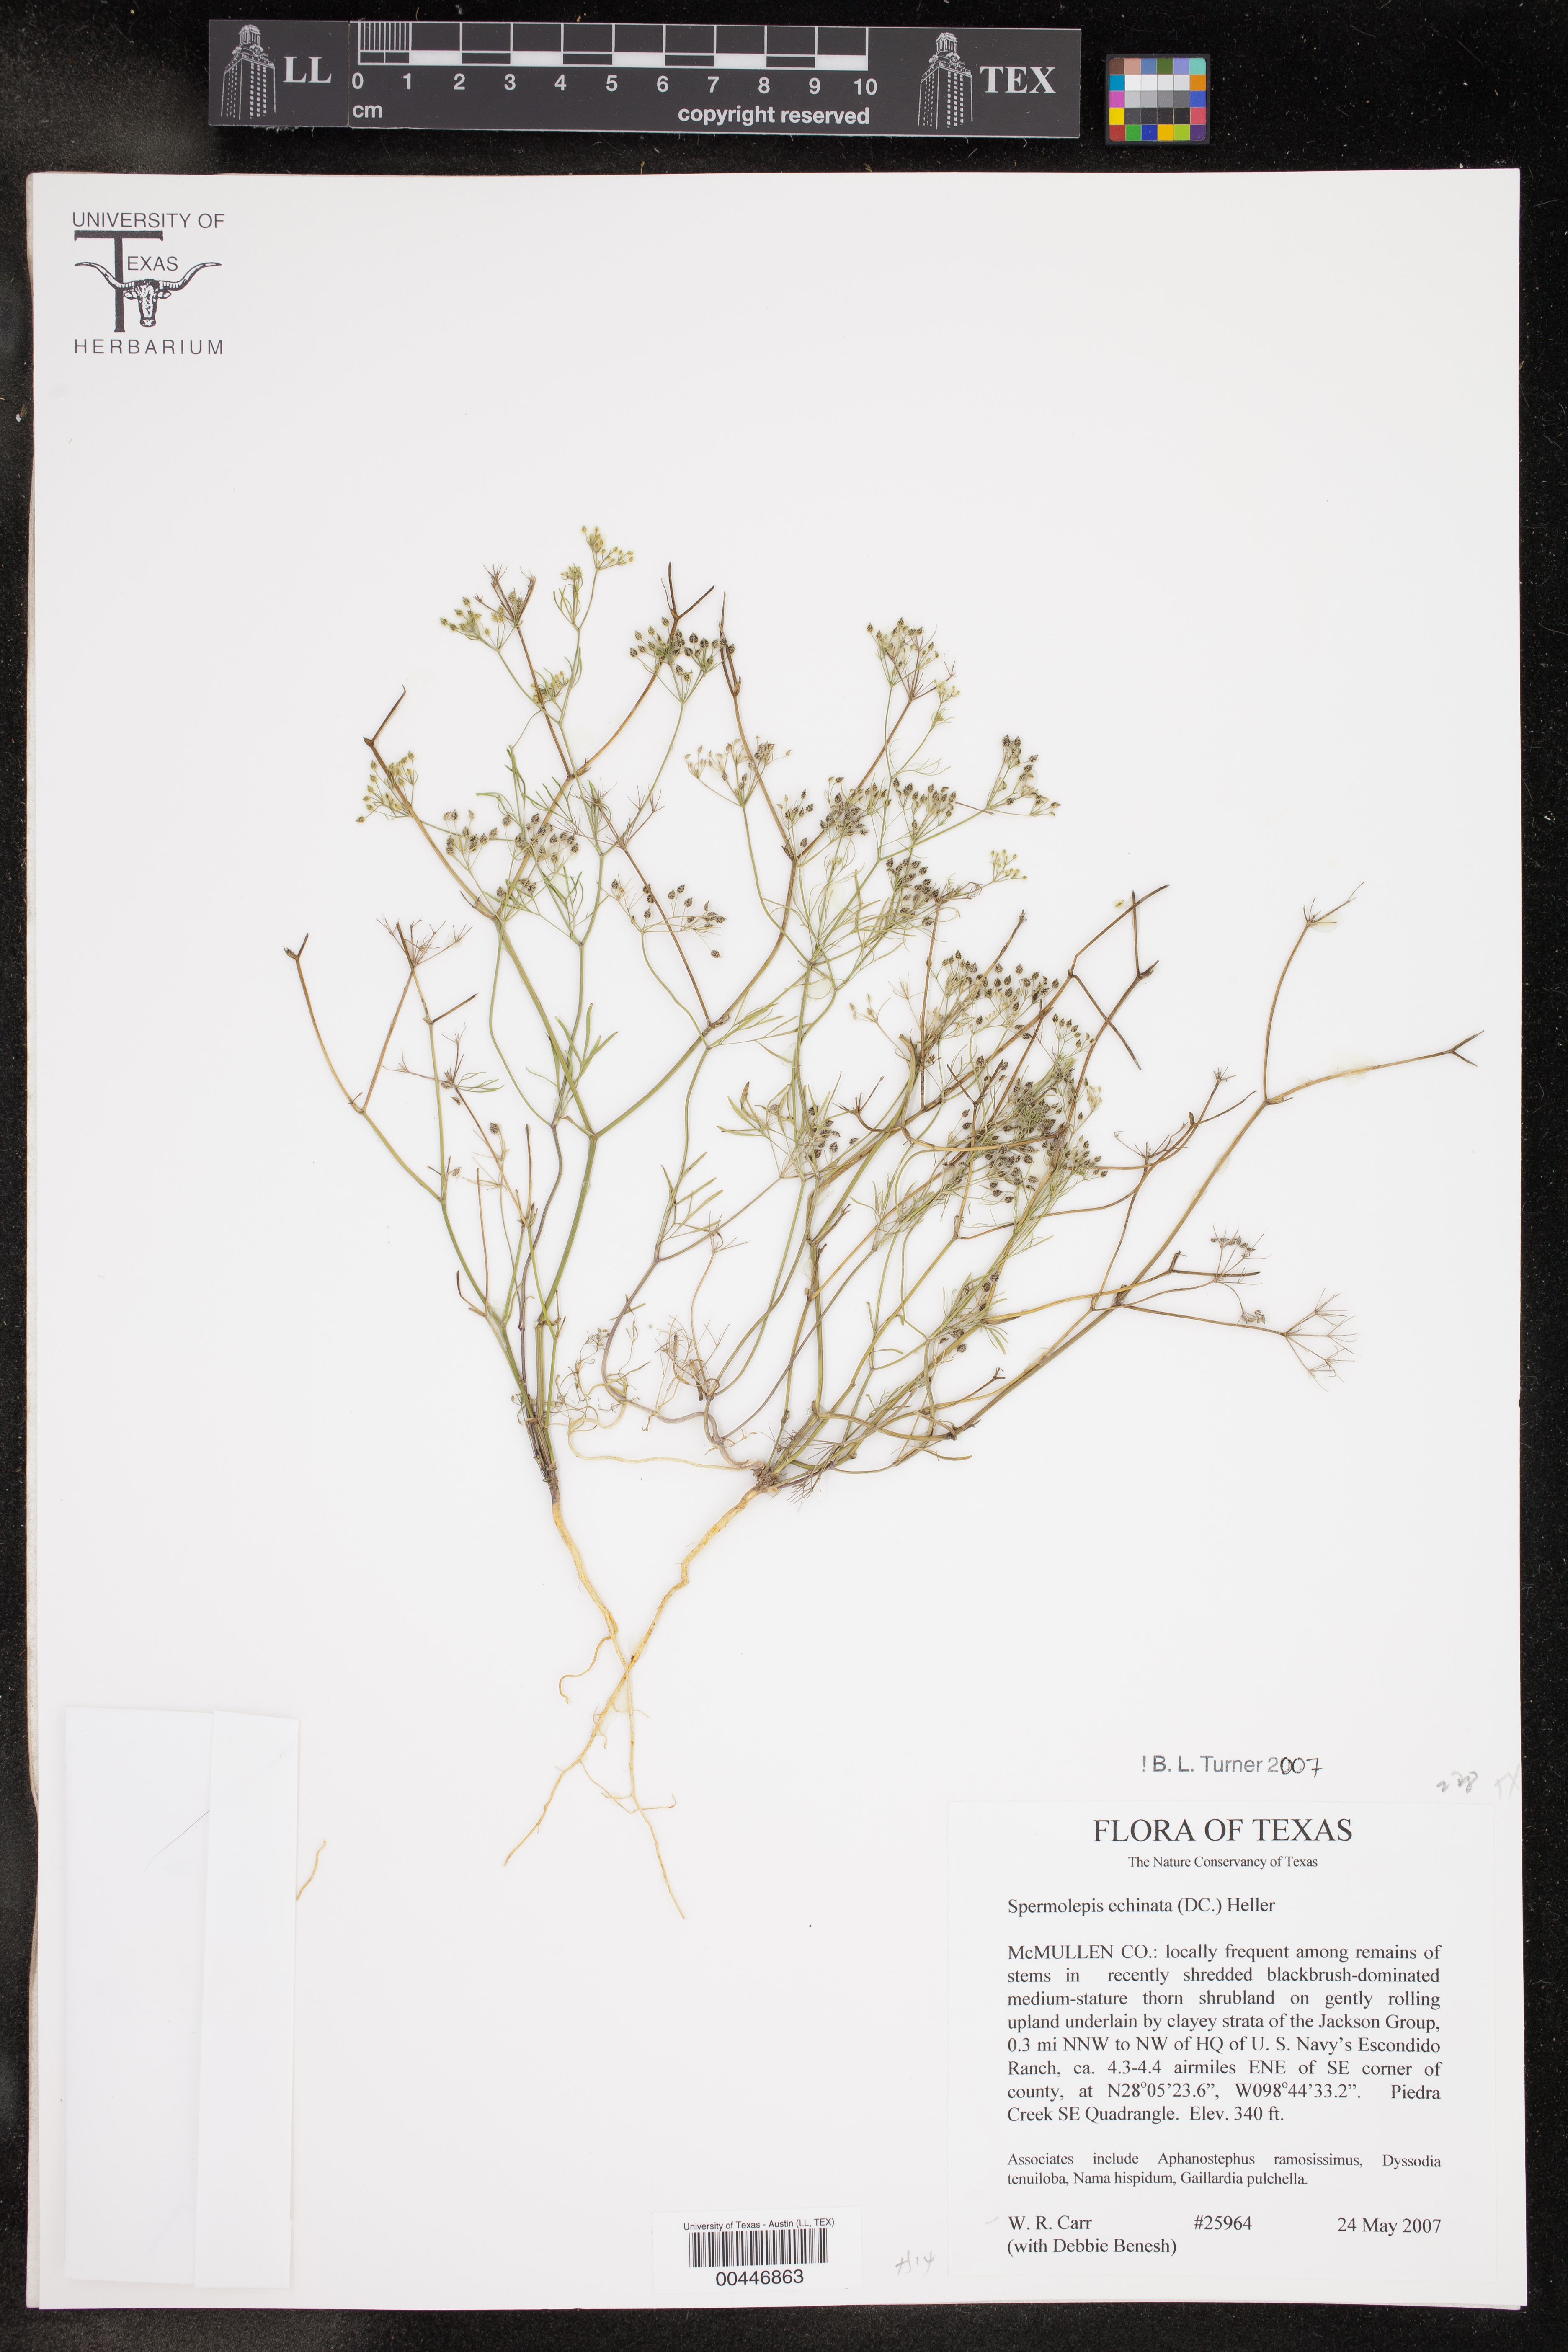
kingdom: Plantae
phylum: Tracheophyta
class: Magnoliopsida
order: Apiales
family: Apiaceae
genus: Spermolepis
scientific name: Spermolepis echinata
